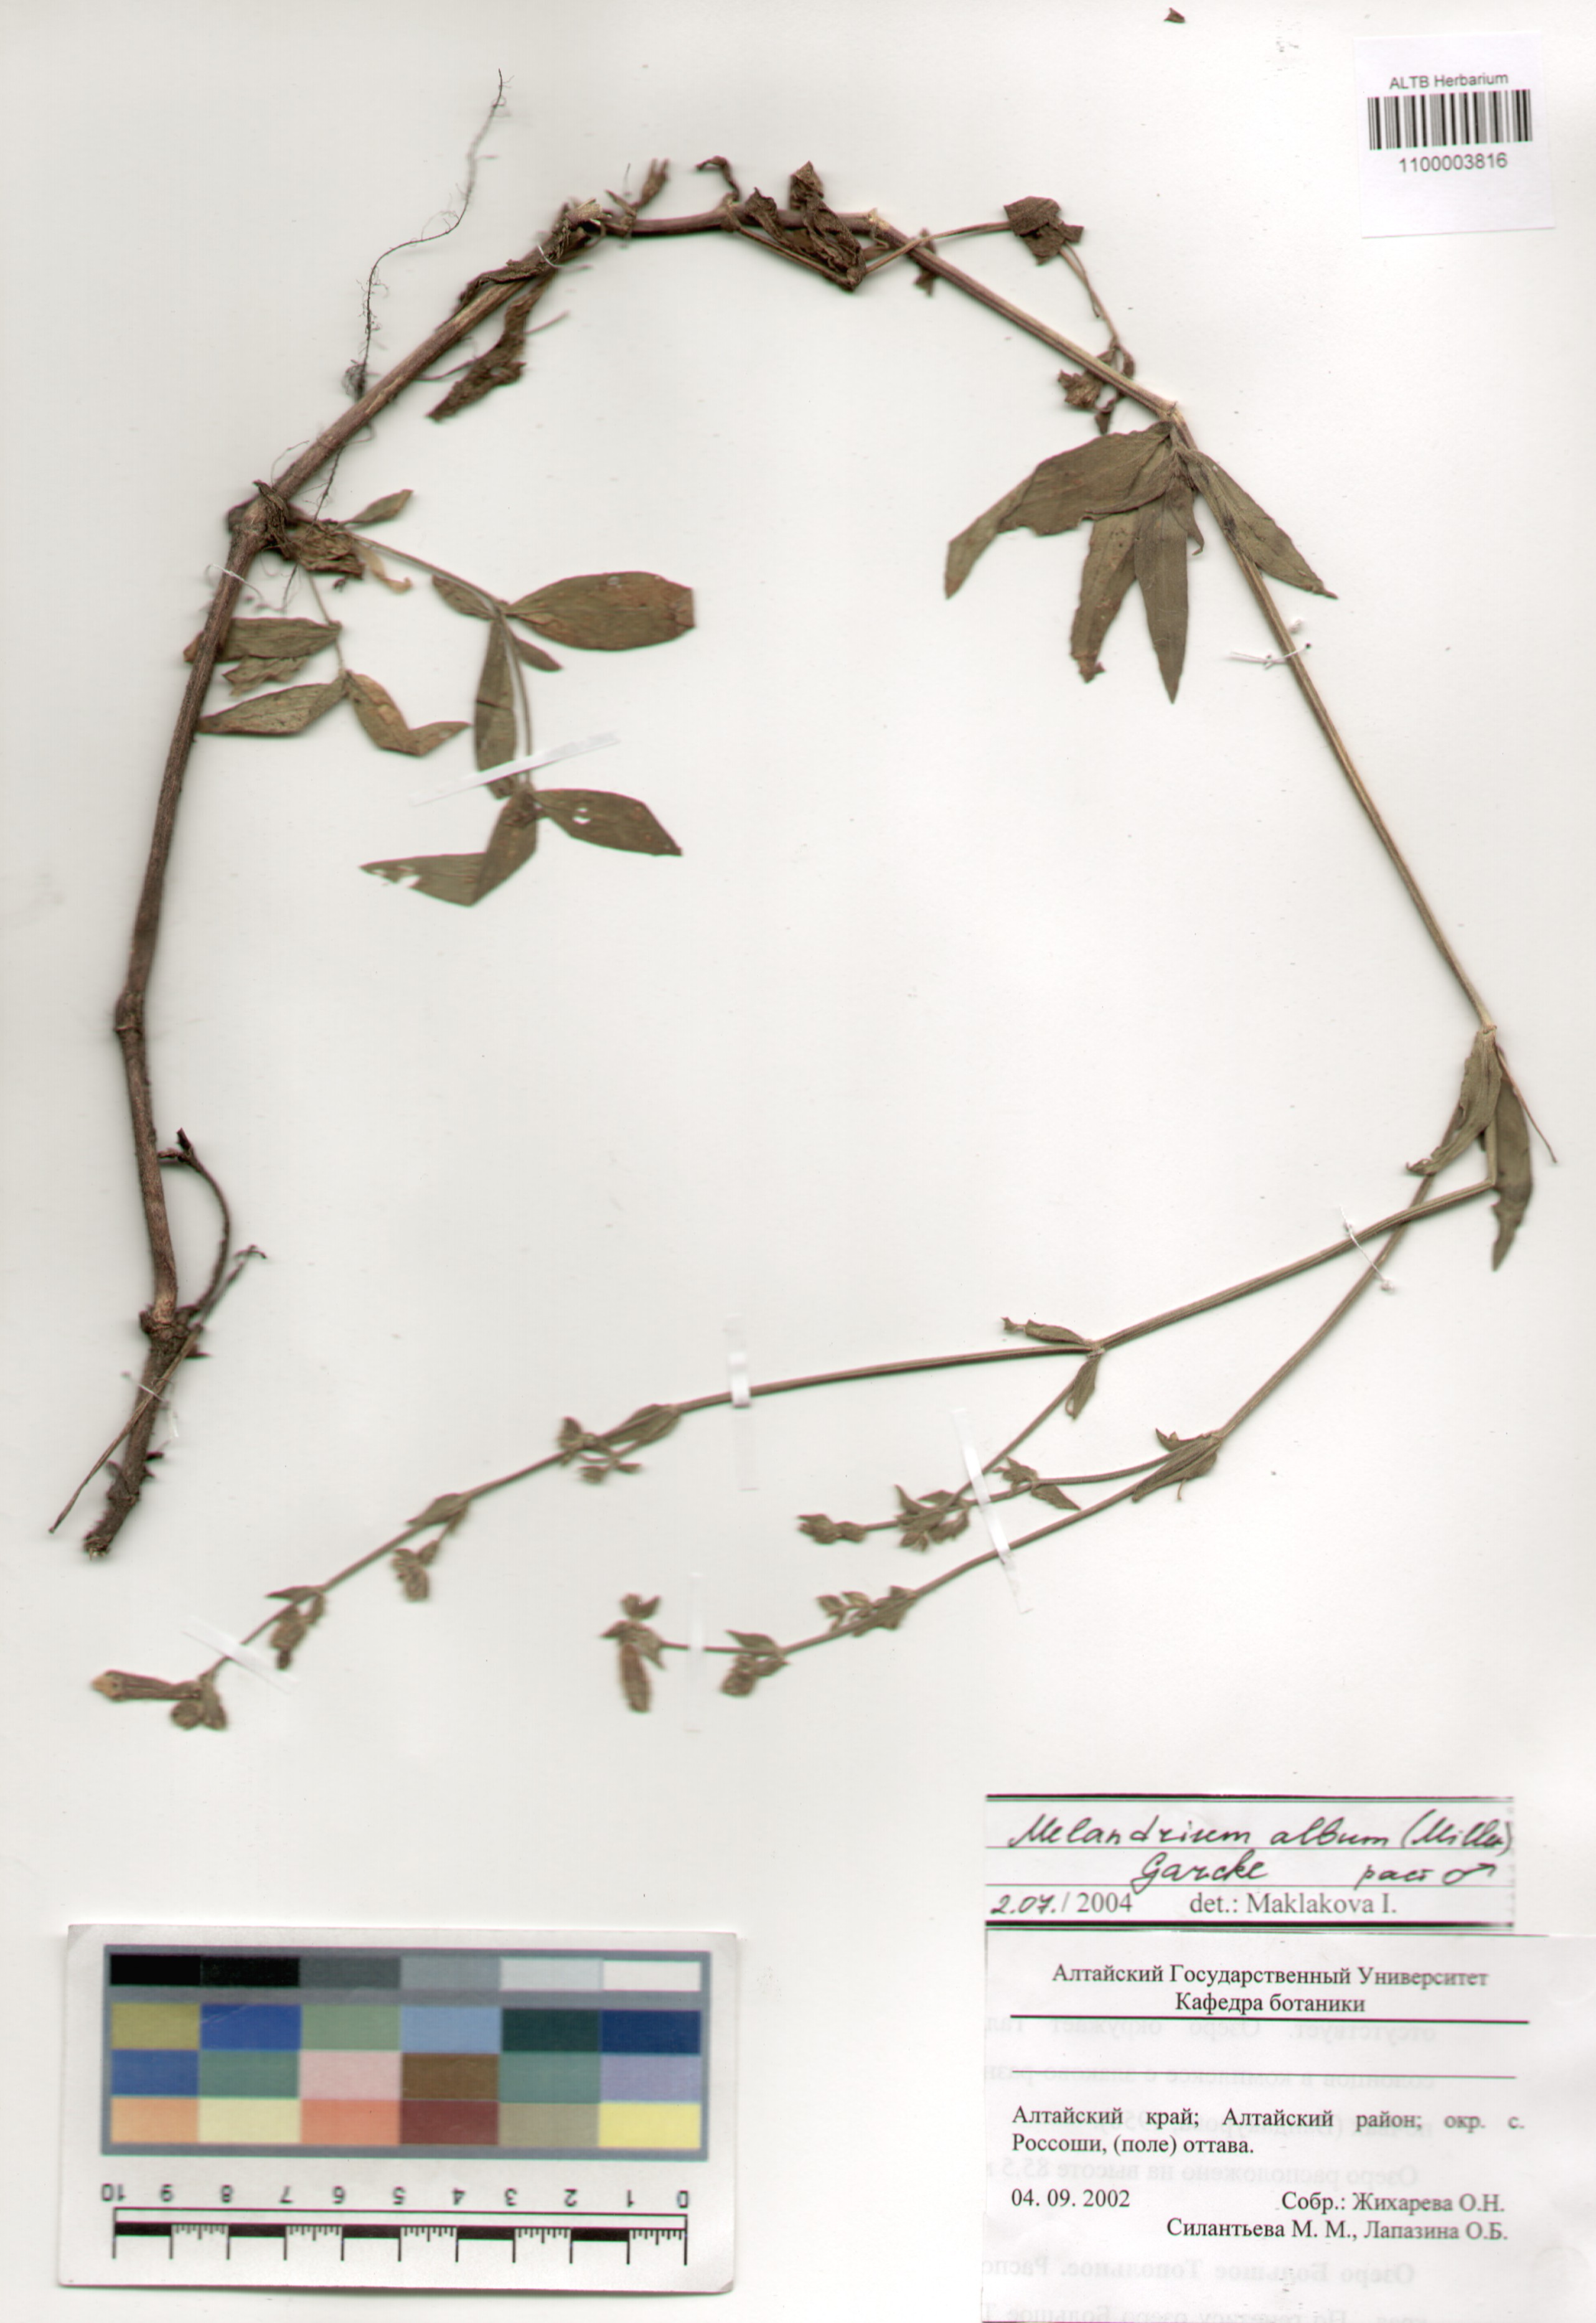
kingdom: Plantae
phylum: Tracheophyta
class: Magnoliopsida
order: Caryophyllales
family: Caryophyllaceae
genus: Silene
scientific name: Silene latifolia
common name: White campion
